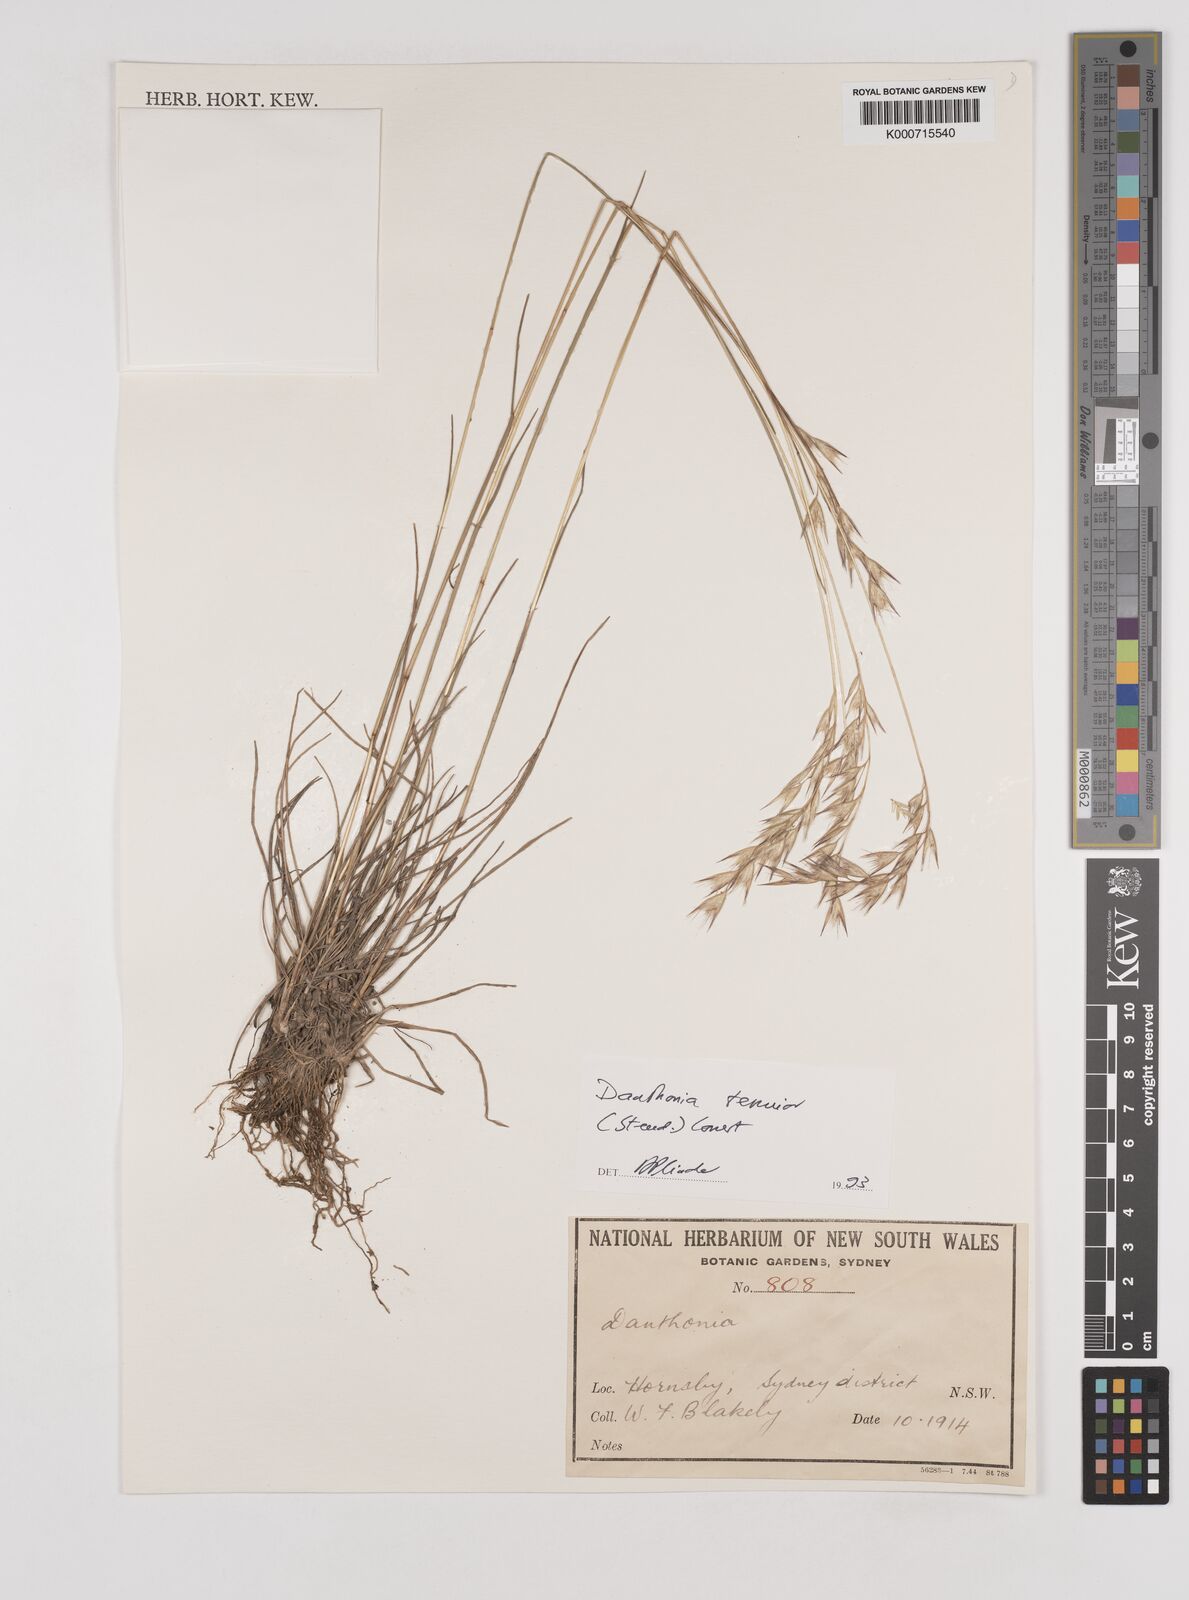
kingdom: Plantae
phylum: Tracheophyta
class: Liliopsida
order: Poales
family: Poaceae
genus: Rytidosperma
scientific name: Rytidosperma tenuius
